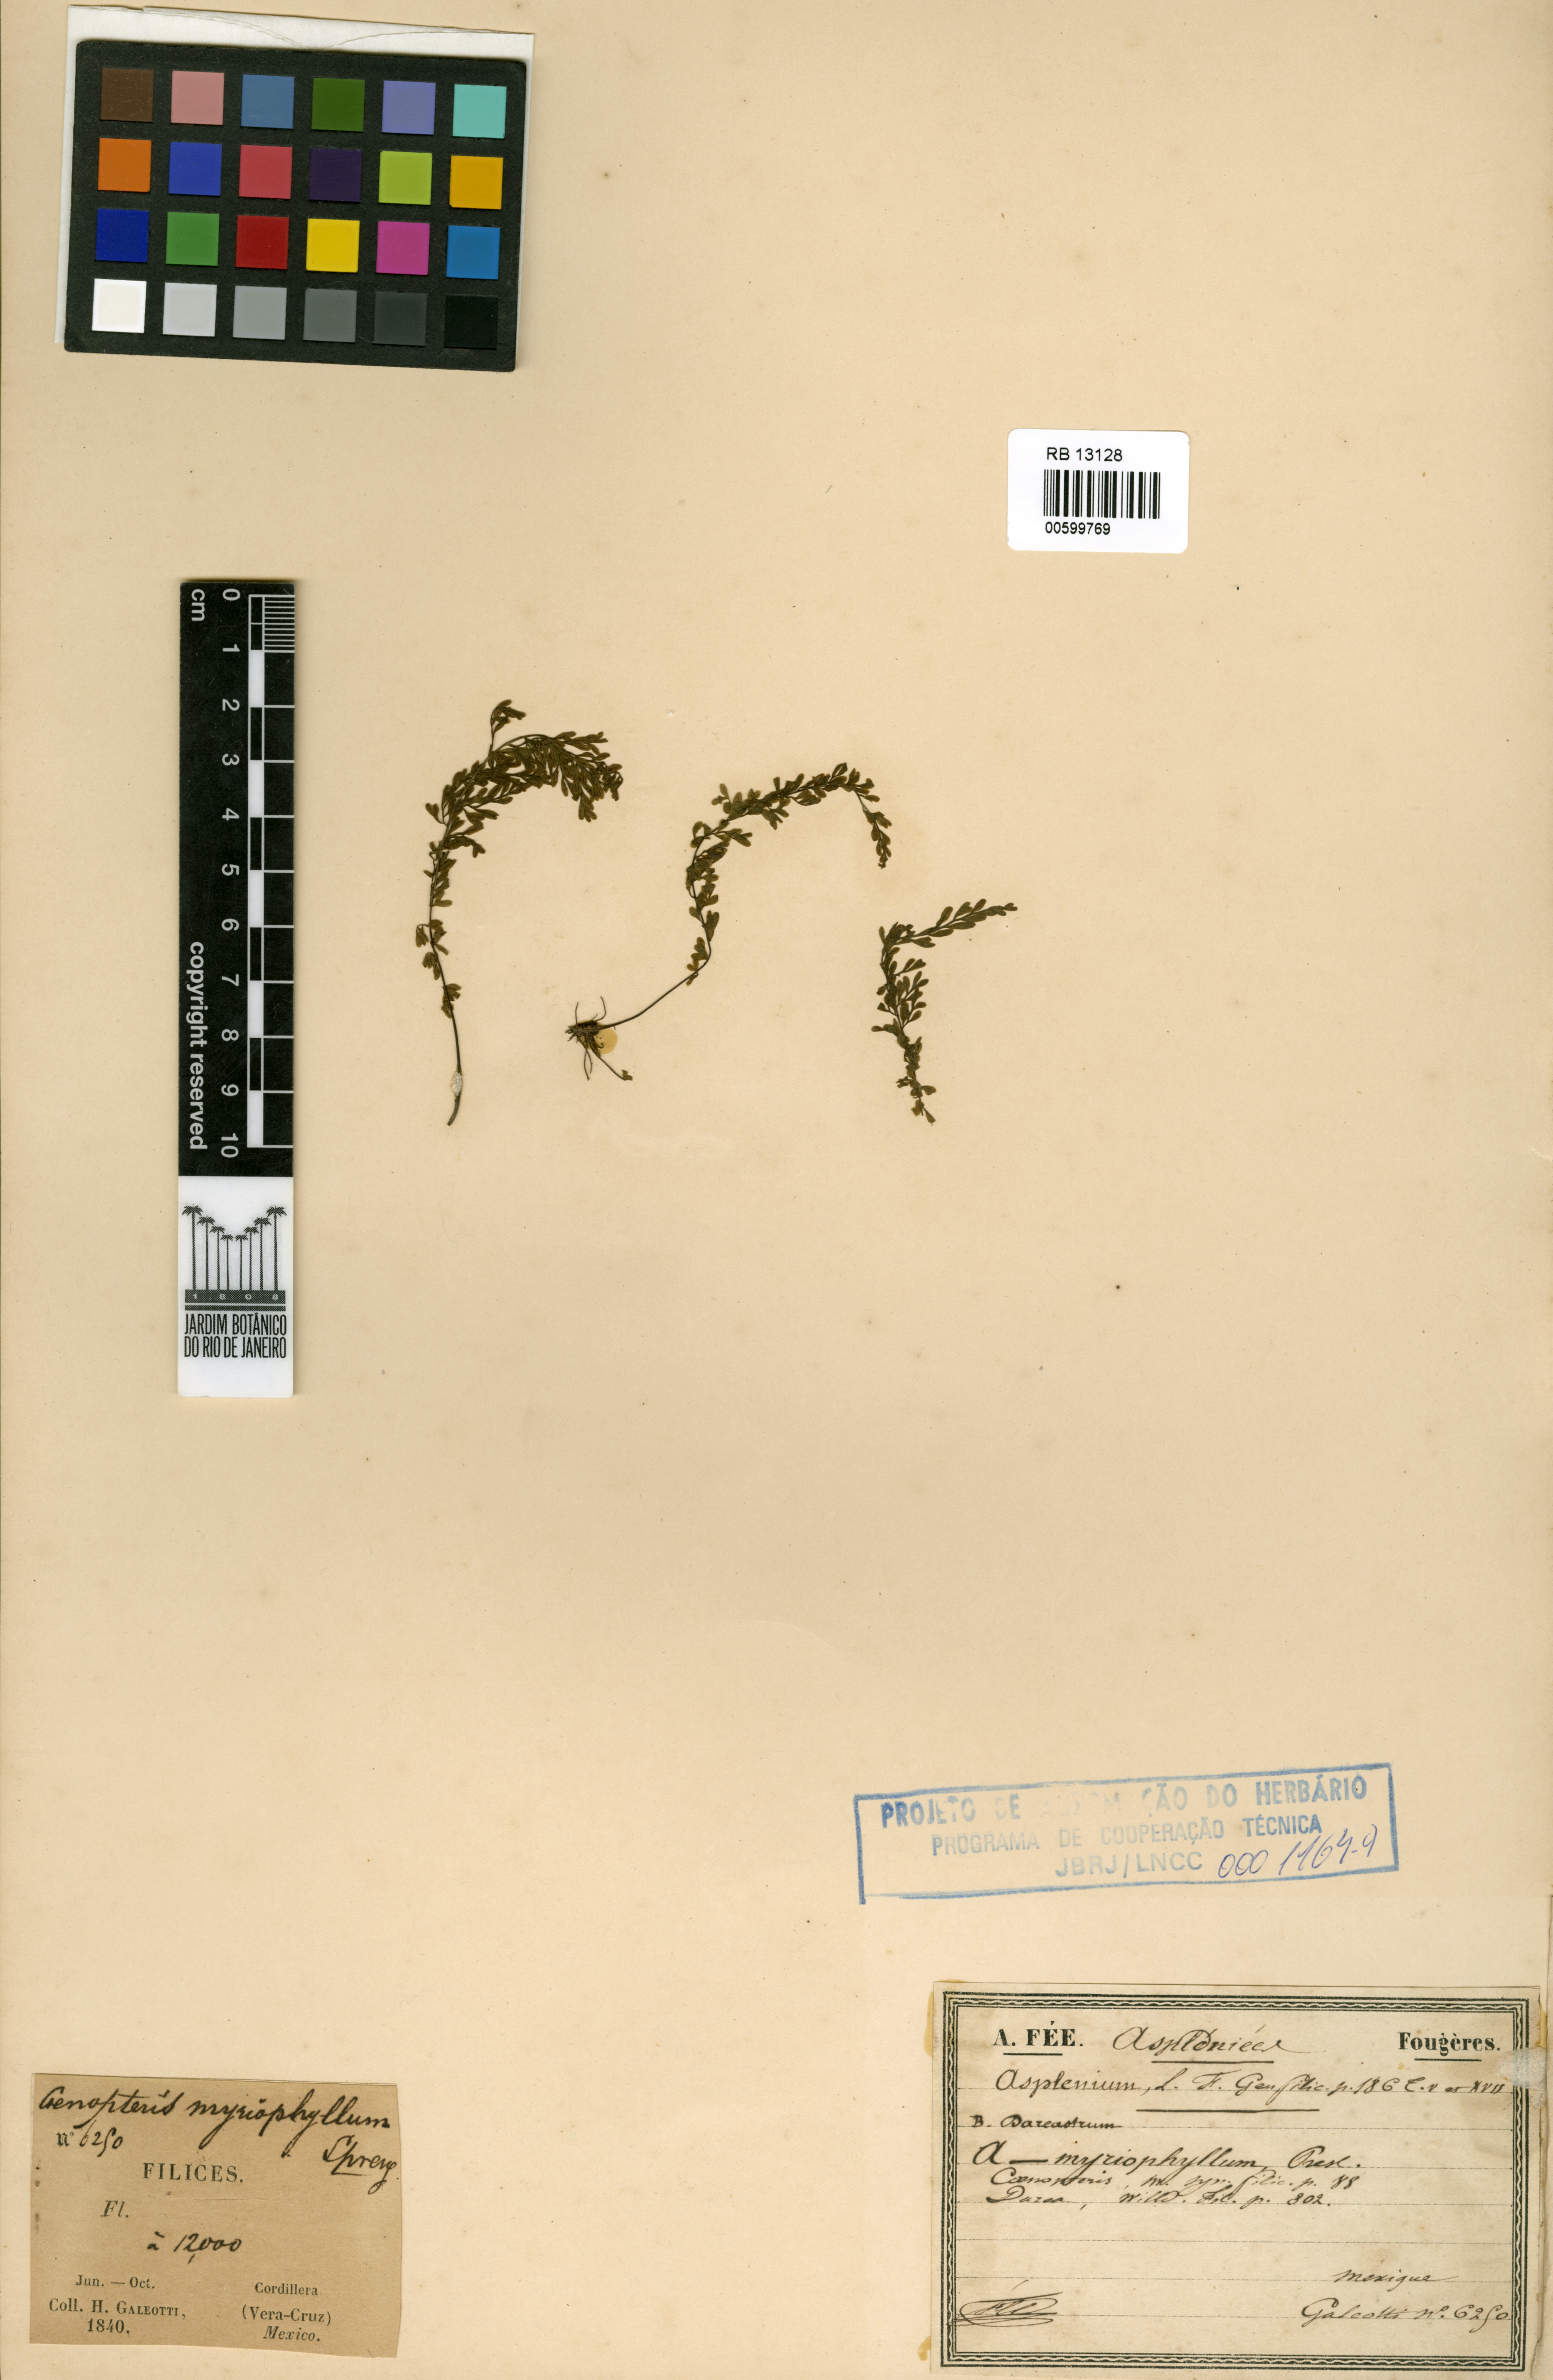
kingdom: Plantae
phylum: Tracheophyta
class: Polypodiopsida
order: Polypodiales
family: Aspleniaceae
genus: Asplenium
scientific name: Asplenium myriophyllum
